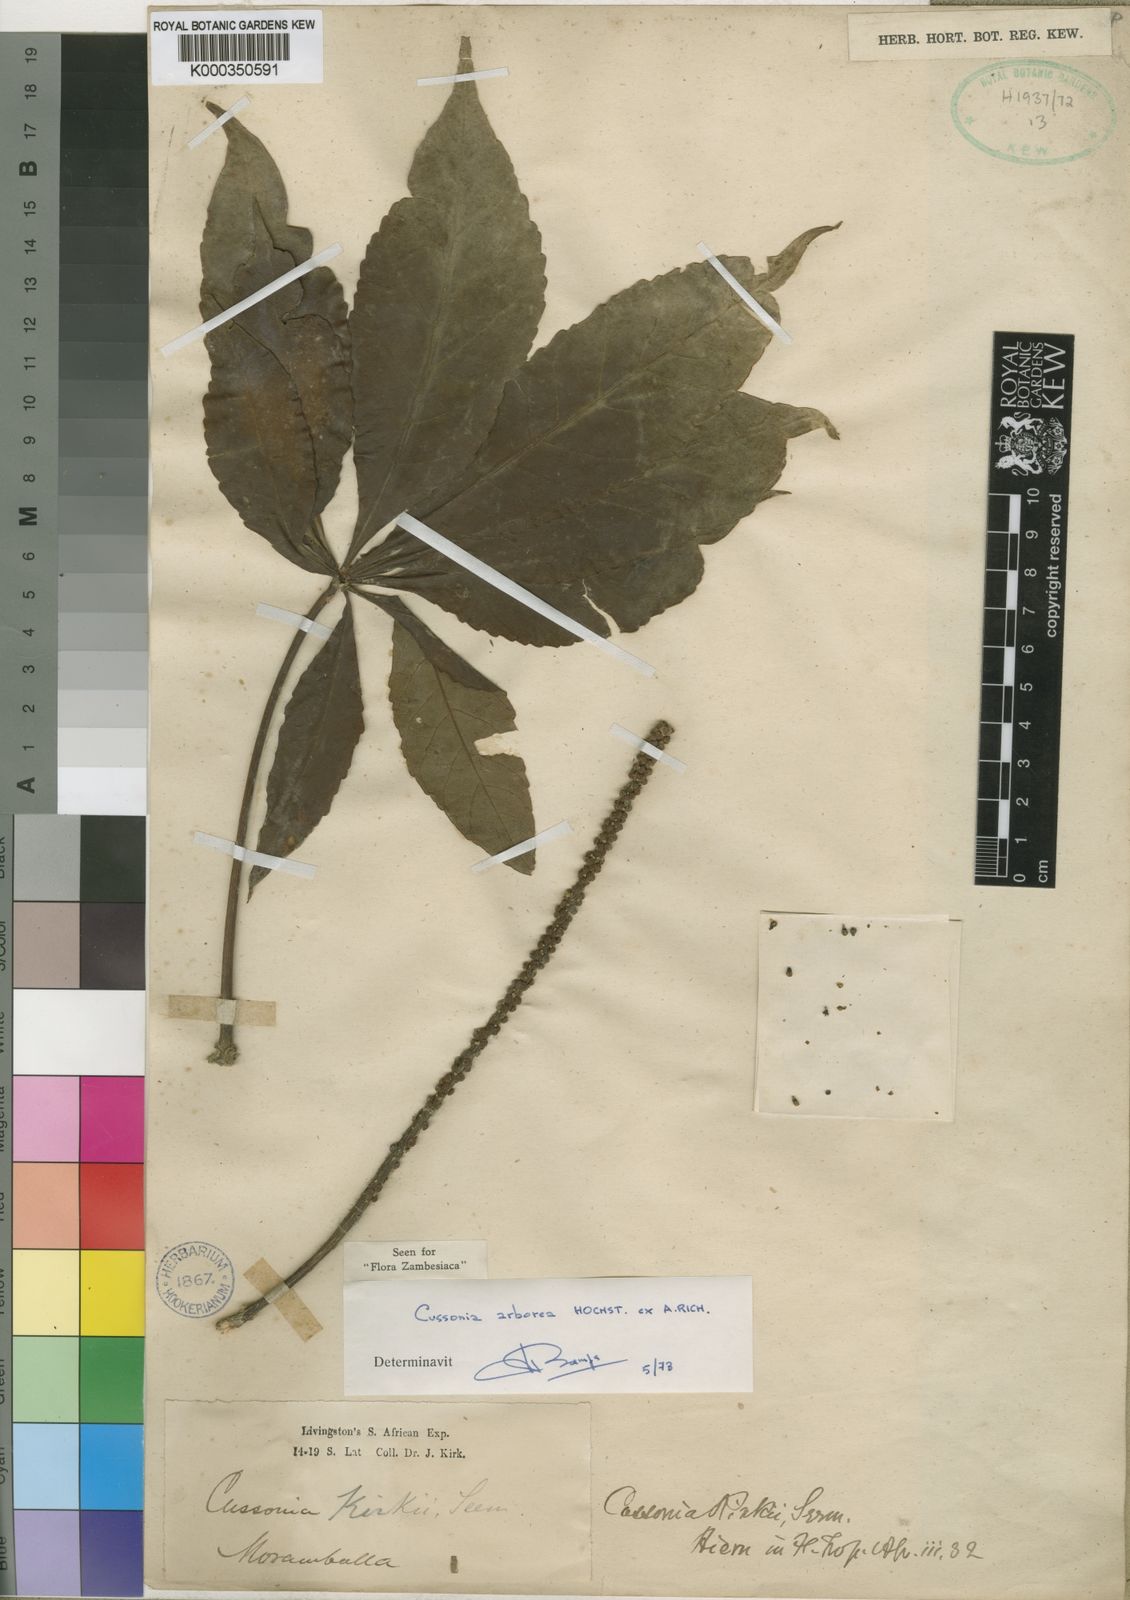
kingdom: Plantae
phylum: Tracheophyta
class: Magnoliopsida
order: Apiales
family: Araliaceae
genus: Cussonia
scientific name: Cussonia arborea
